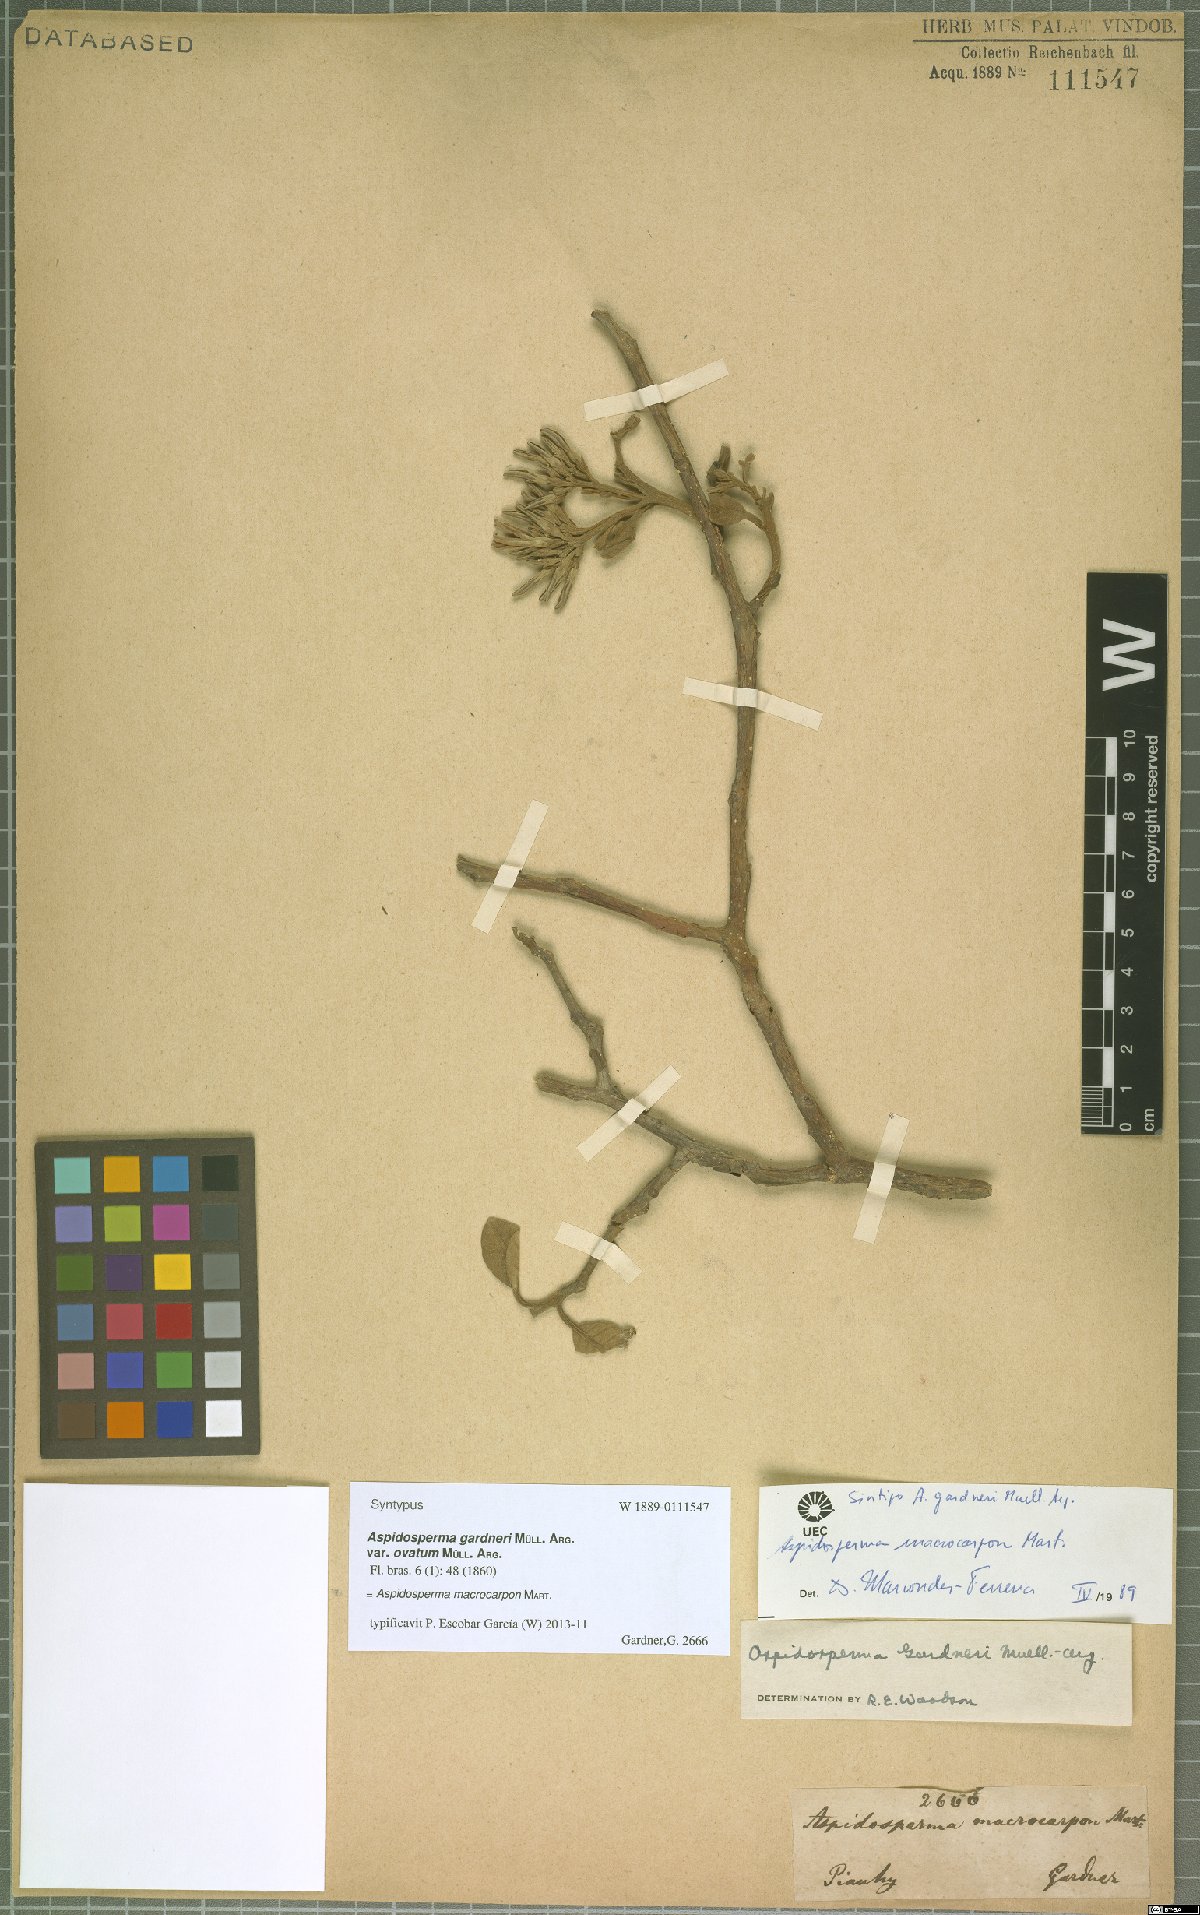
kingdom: Plantae
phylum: Tracheophyta
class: Magnoliopsida
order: Gentianales
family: Apocynaceae
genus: Aspidosperma
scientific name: Aspidosperma macrocarpon
